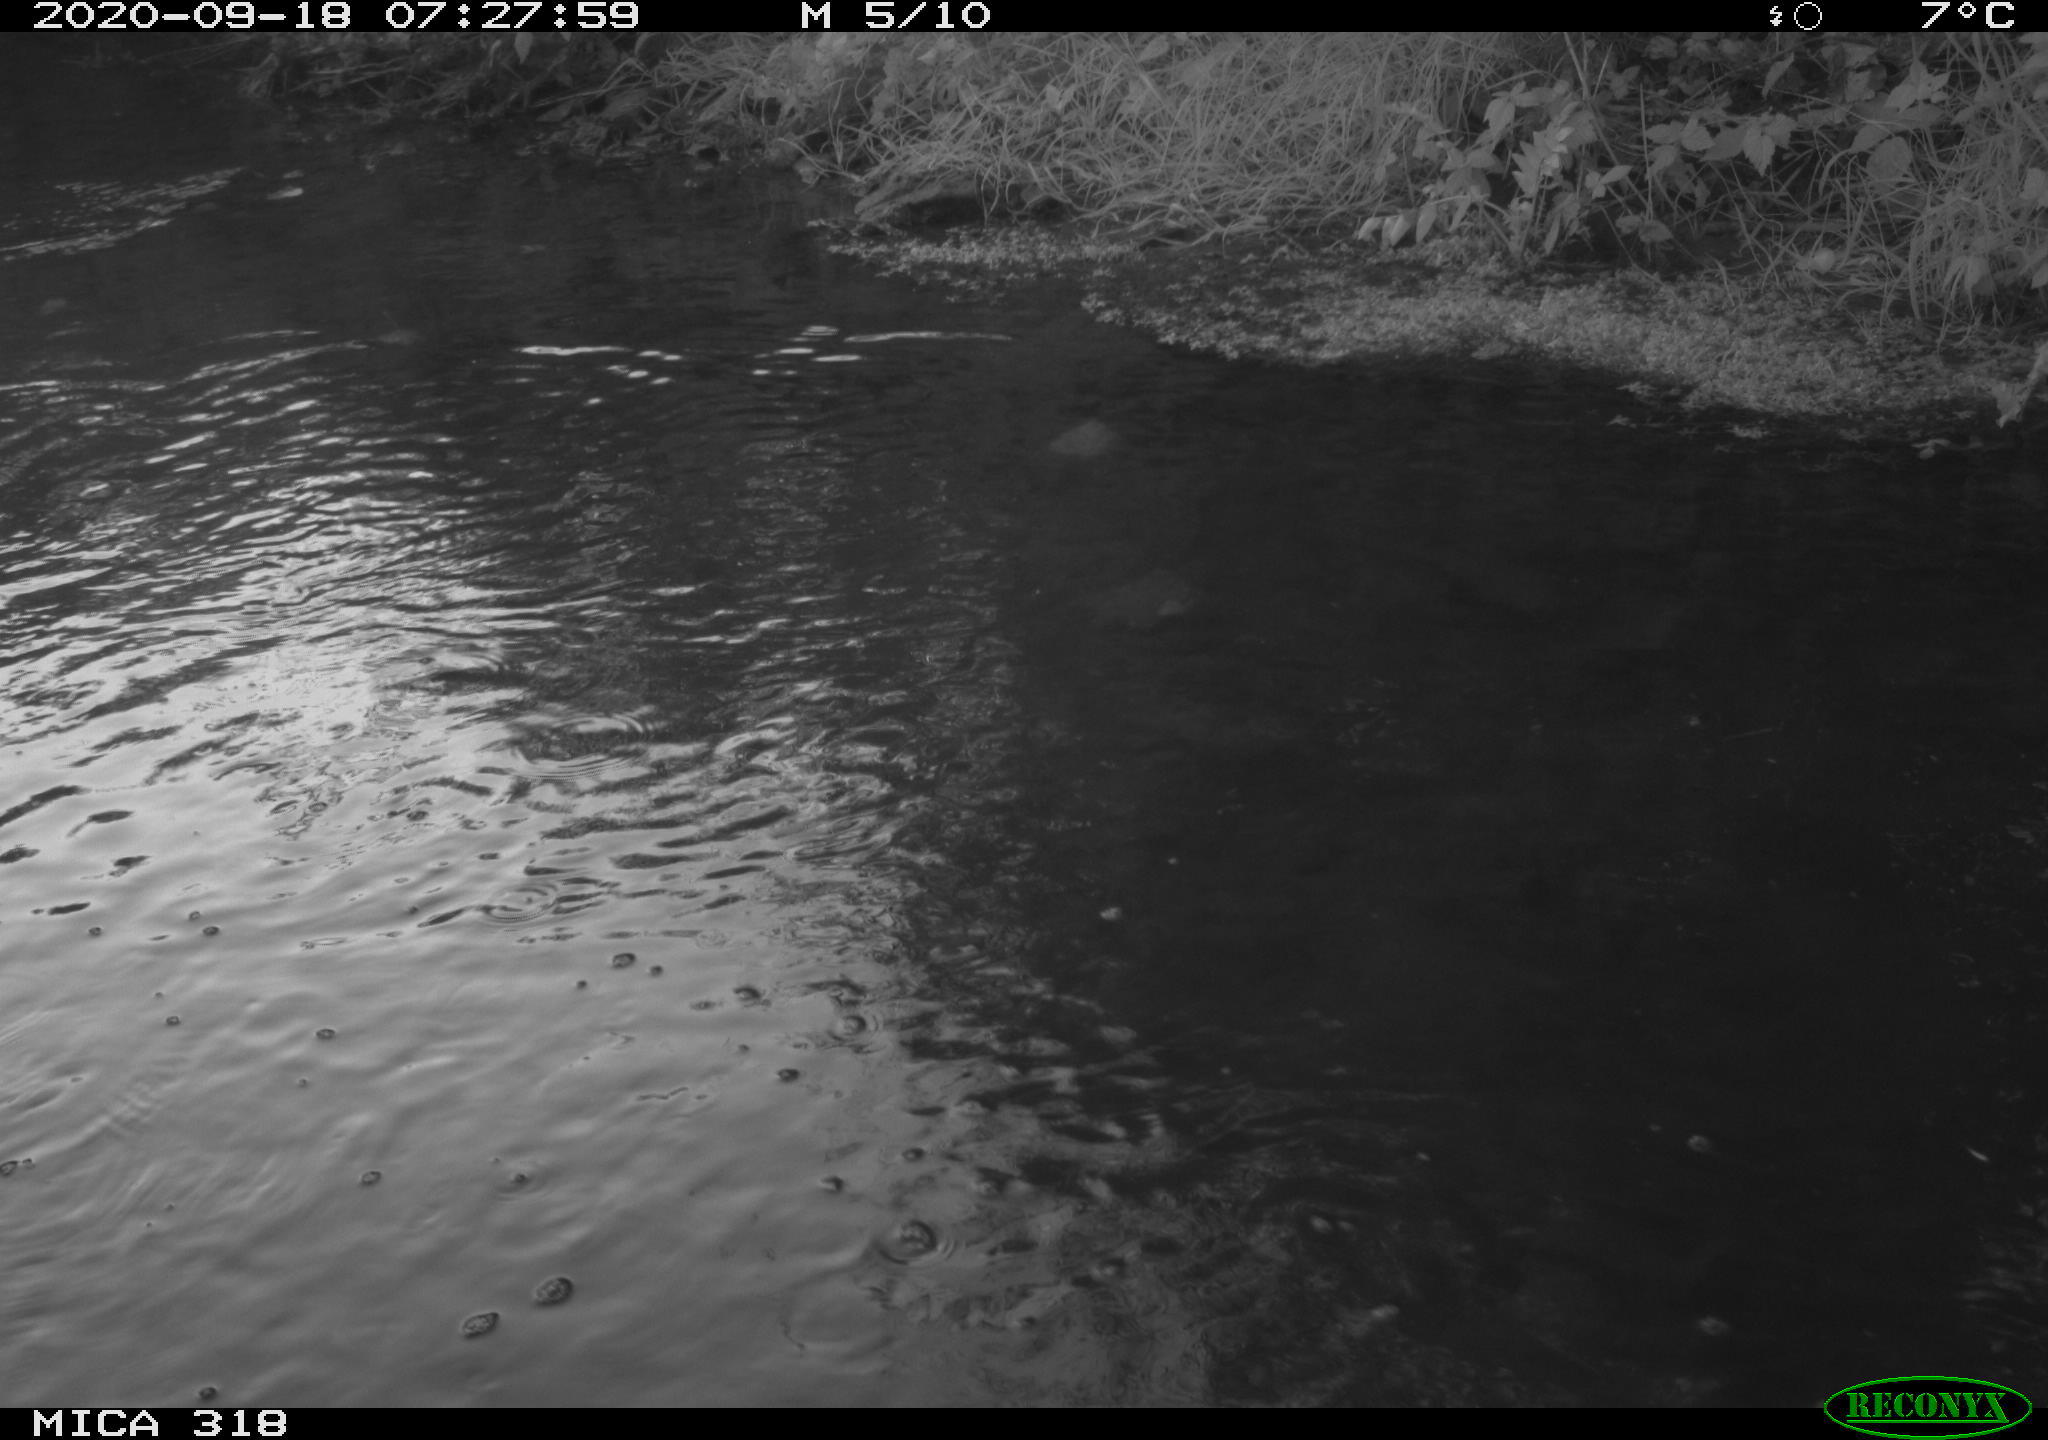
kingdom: Animalia
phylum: Chordata
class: Aves
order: Gruiformes
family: Rallidae
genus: Gallinula
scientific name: Gallinula chloropus
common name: Common moorhen
